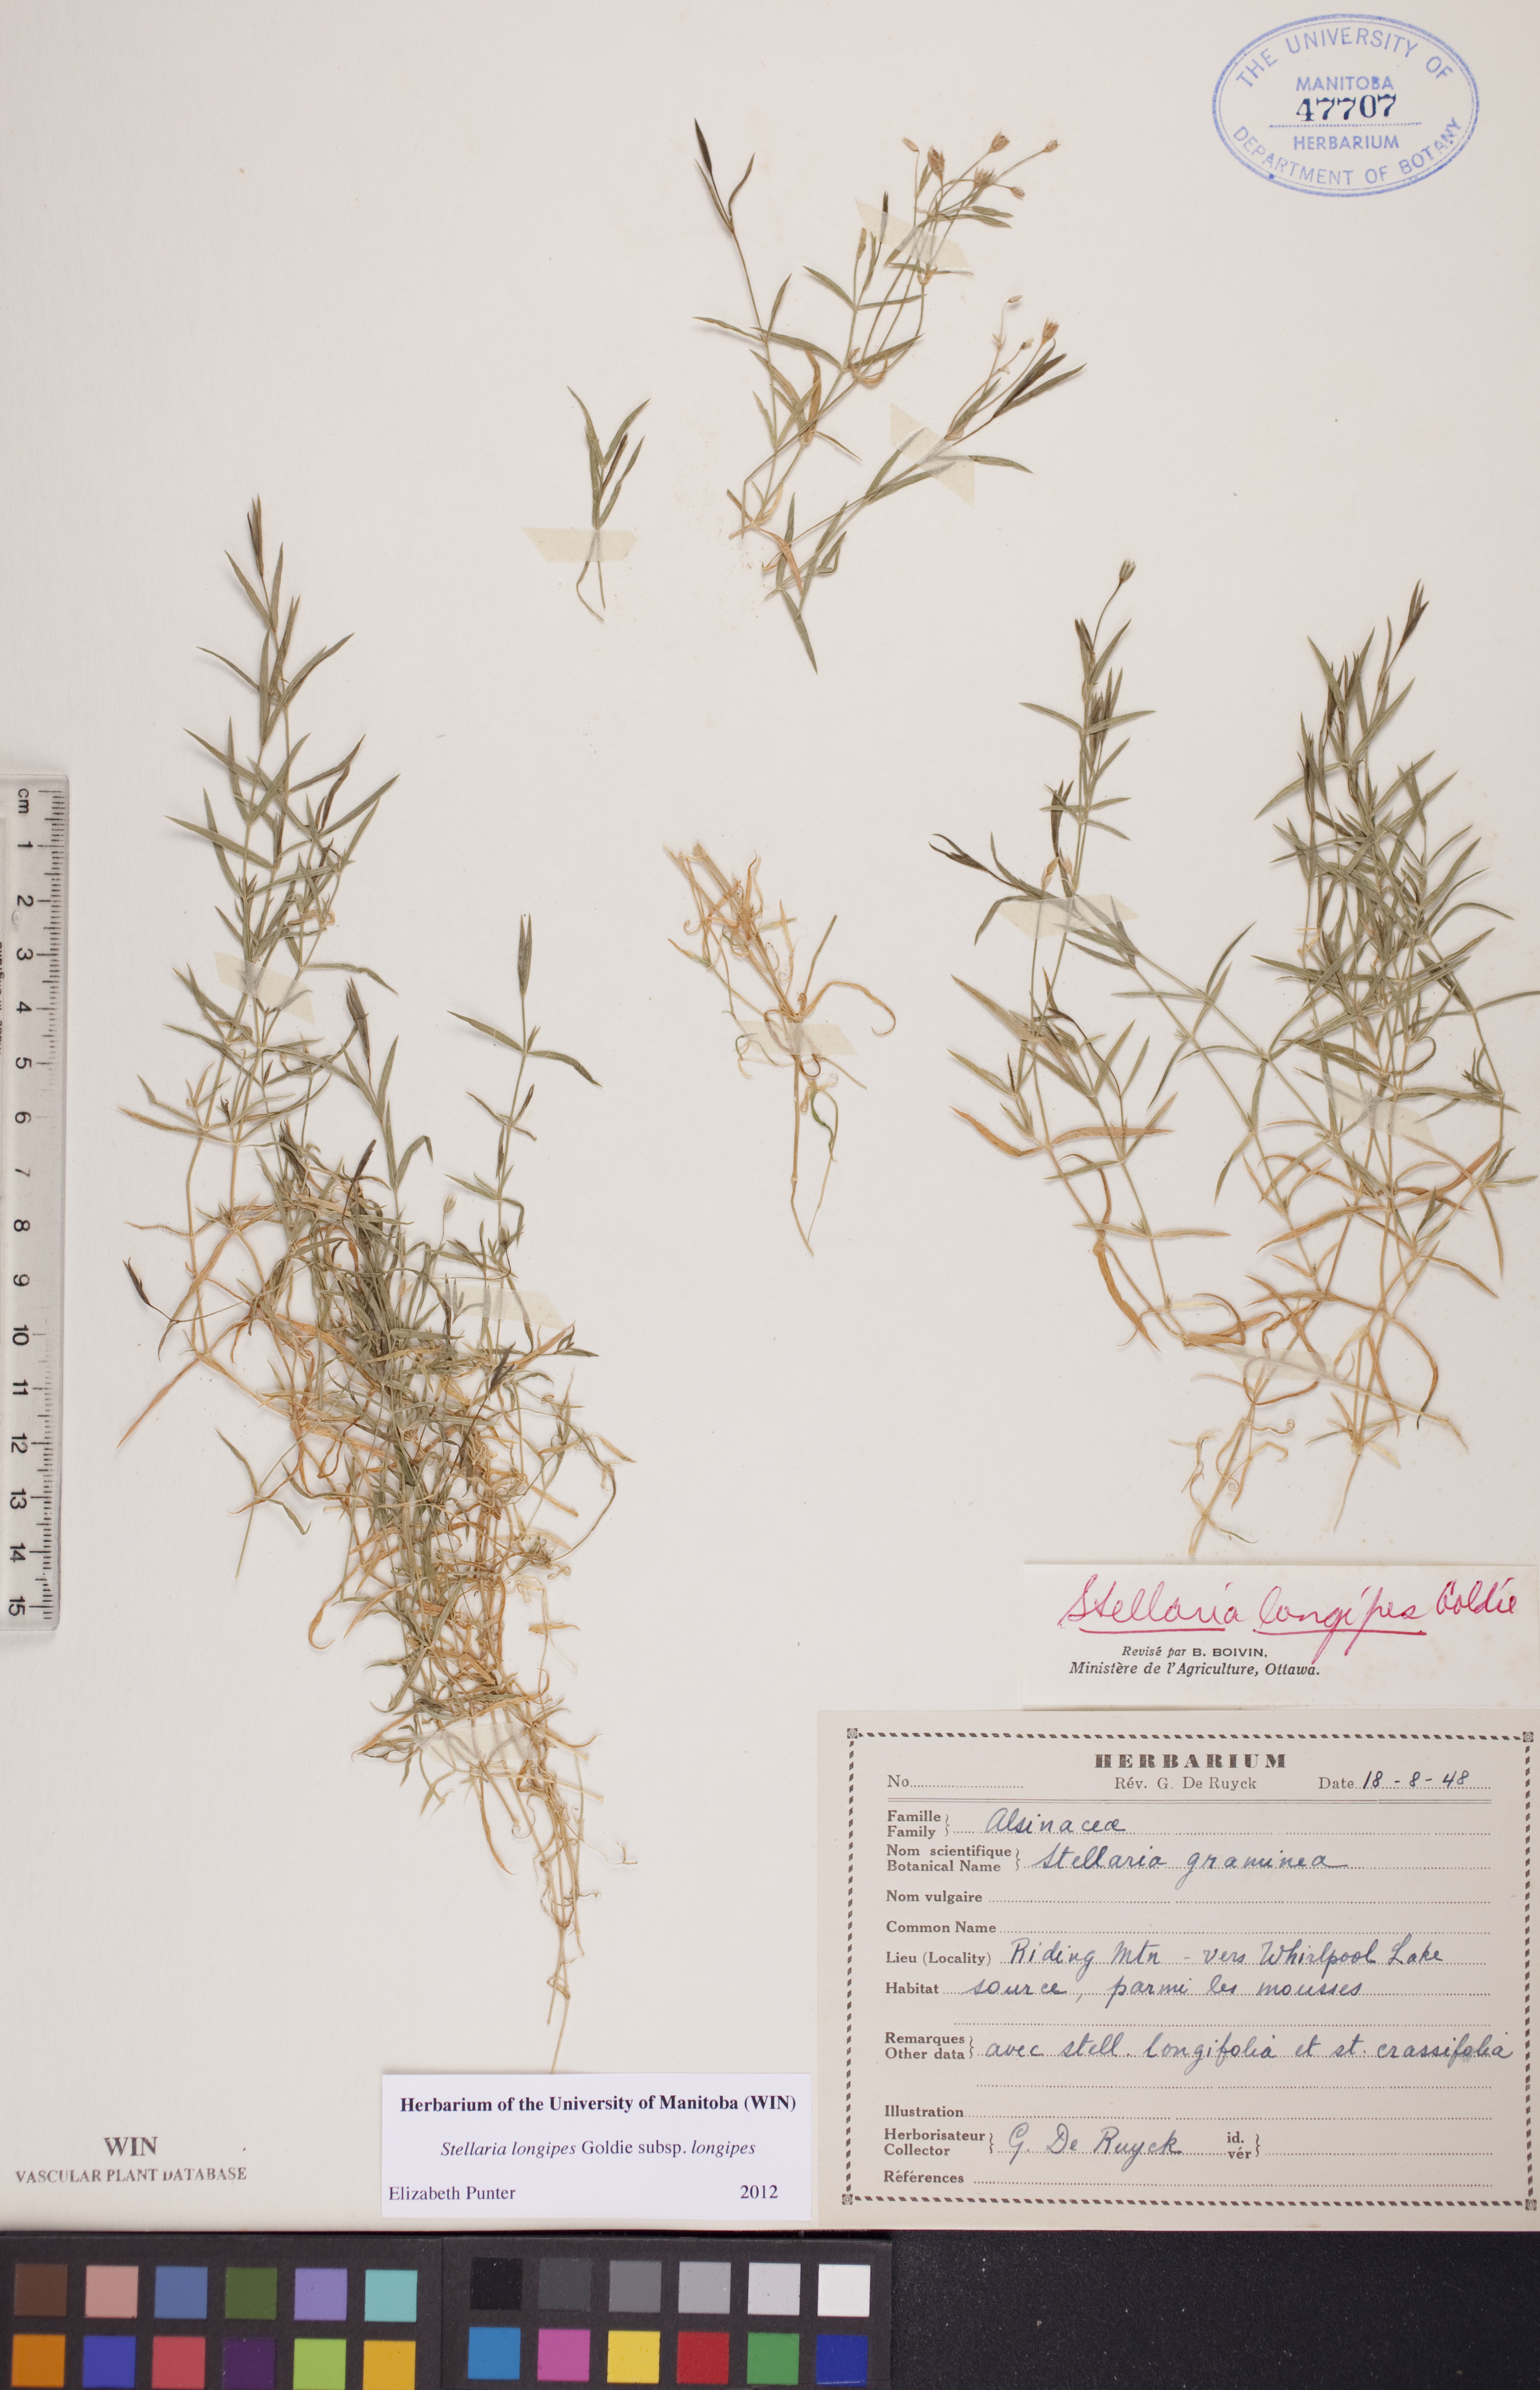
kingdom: Plantae
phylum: Tracheophyta
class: Magnoliopsida
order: Caryophyllales
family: Caryophyllaceae
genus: Stellaria
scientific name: Stellaria graminea
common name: Grass-like starwort
